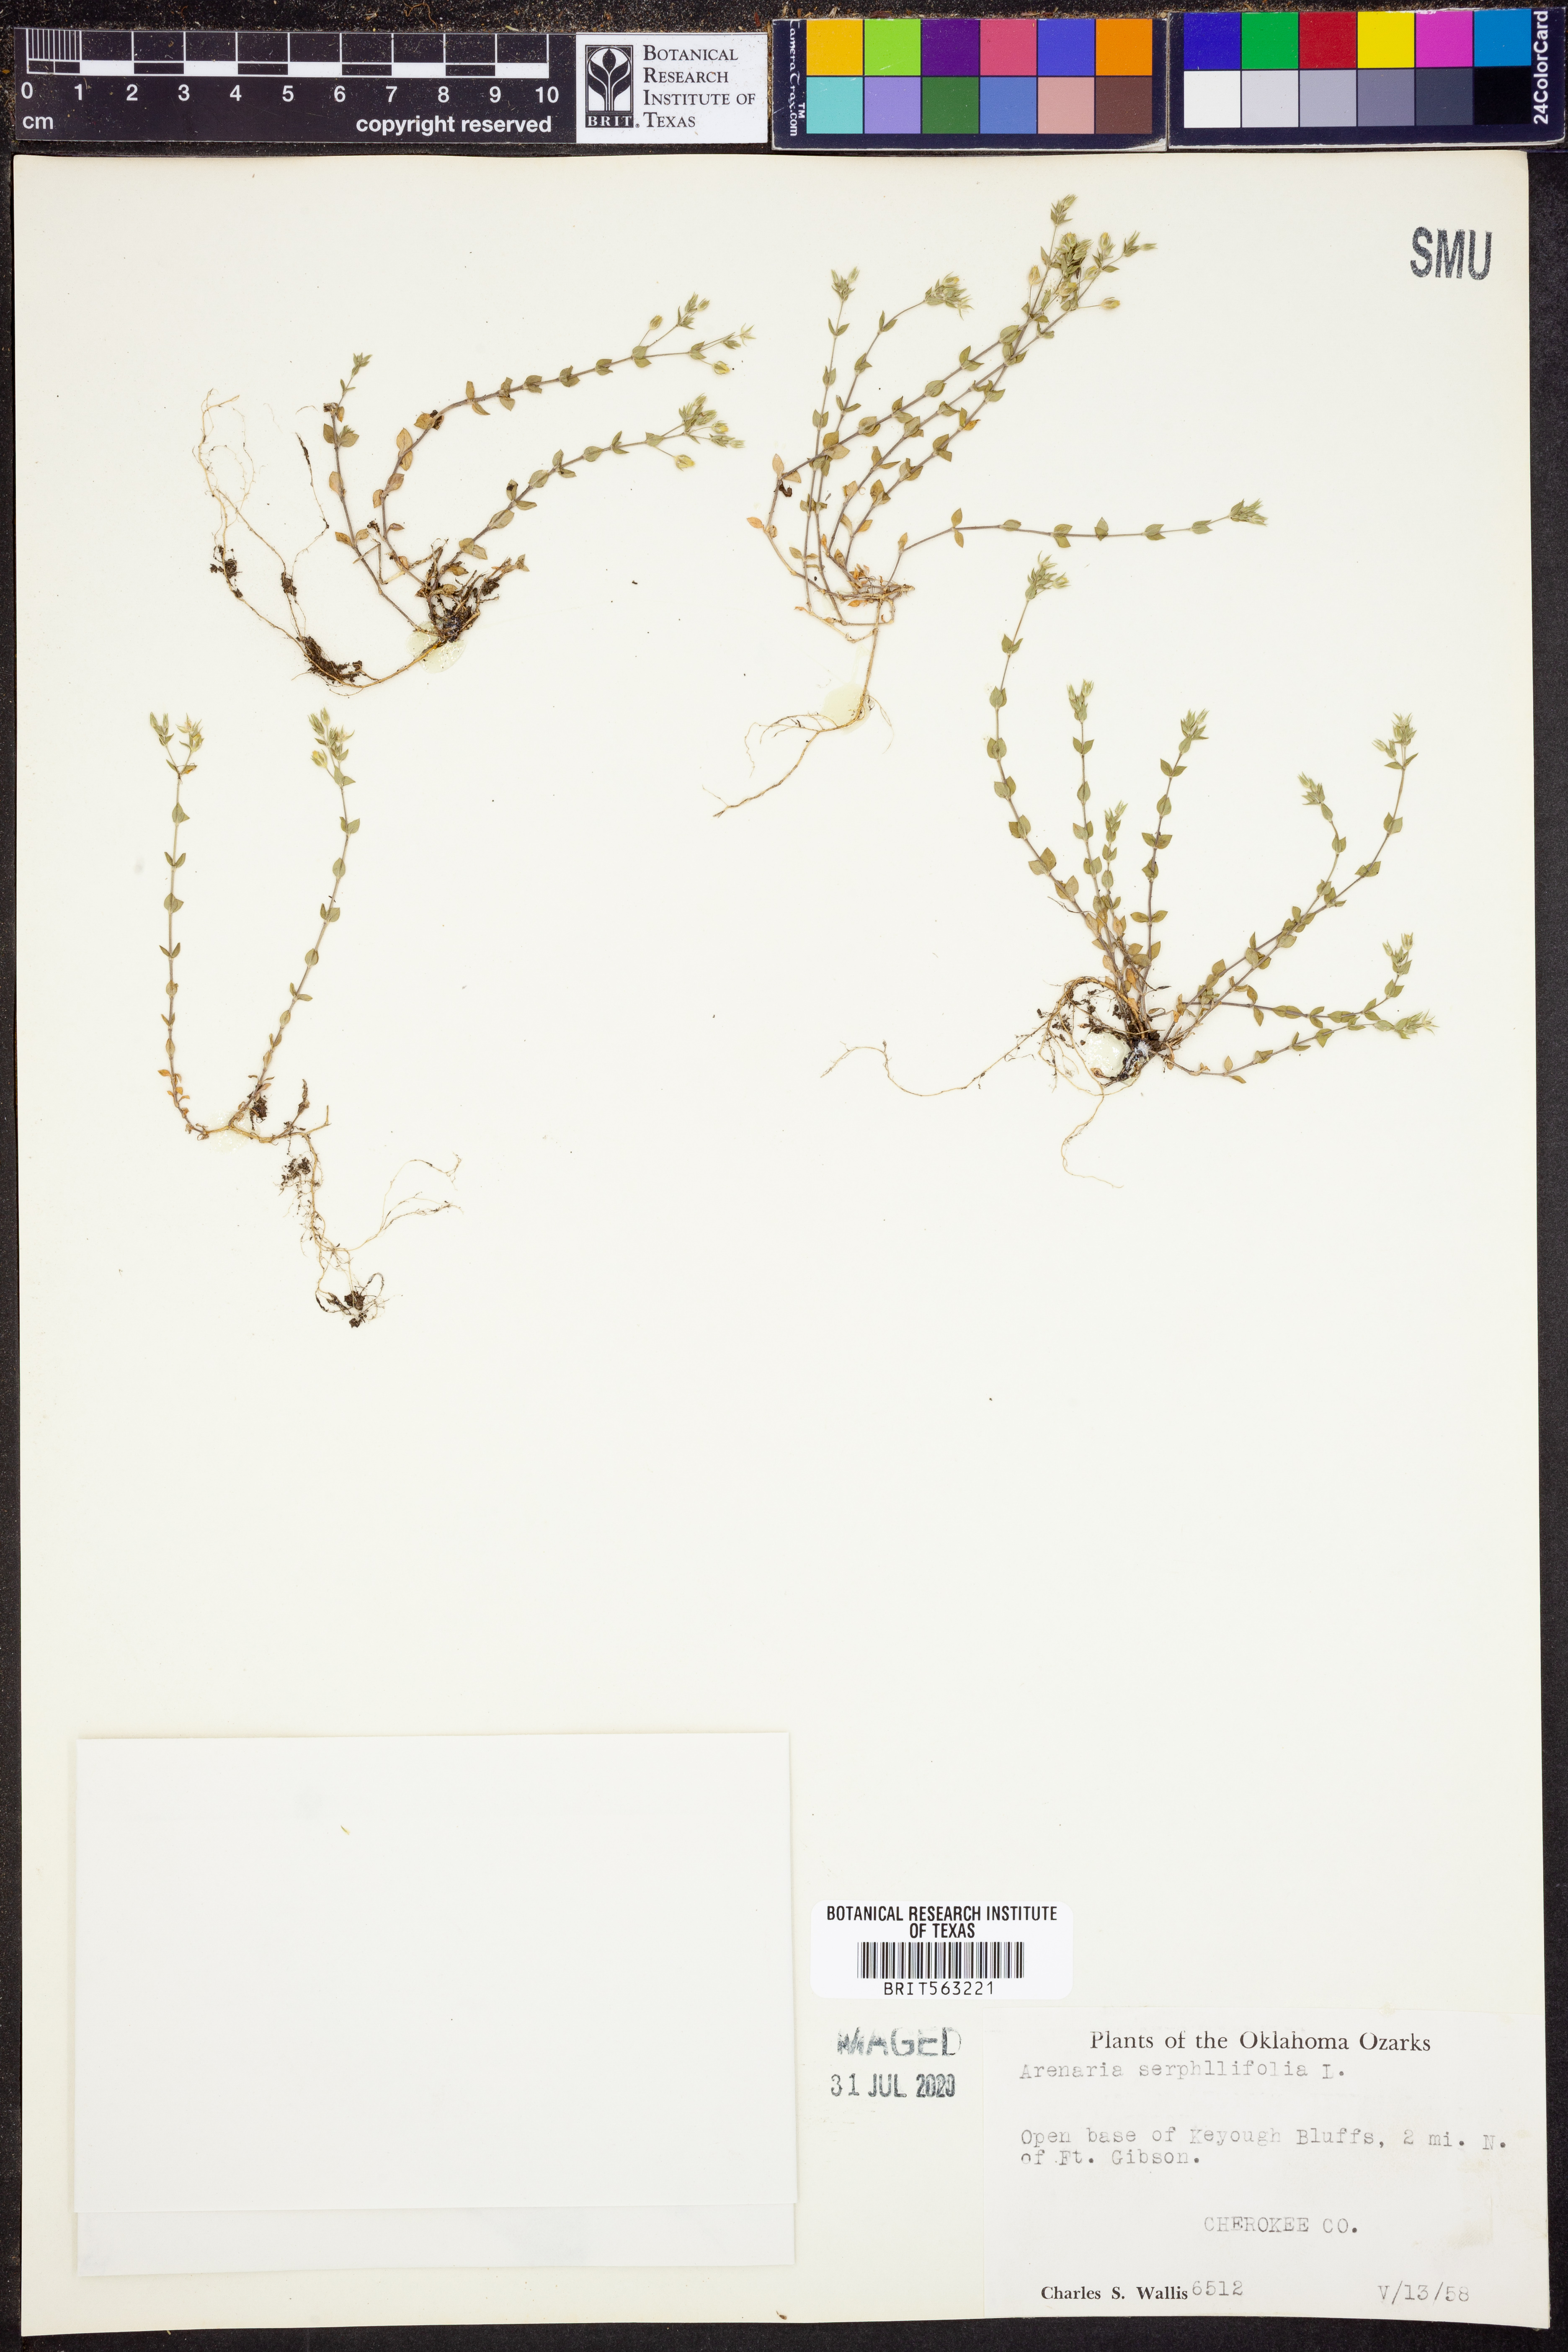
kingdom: Plantae
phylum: Tracheophyta
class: Magnoliopsida
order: Caryophyllales
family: Caryophyllaceae
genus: Arenaria
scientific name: Arenaria serpyllifolia
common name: Thyme-leaved sandwort
